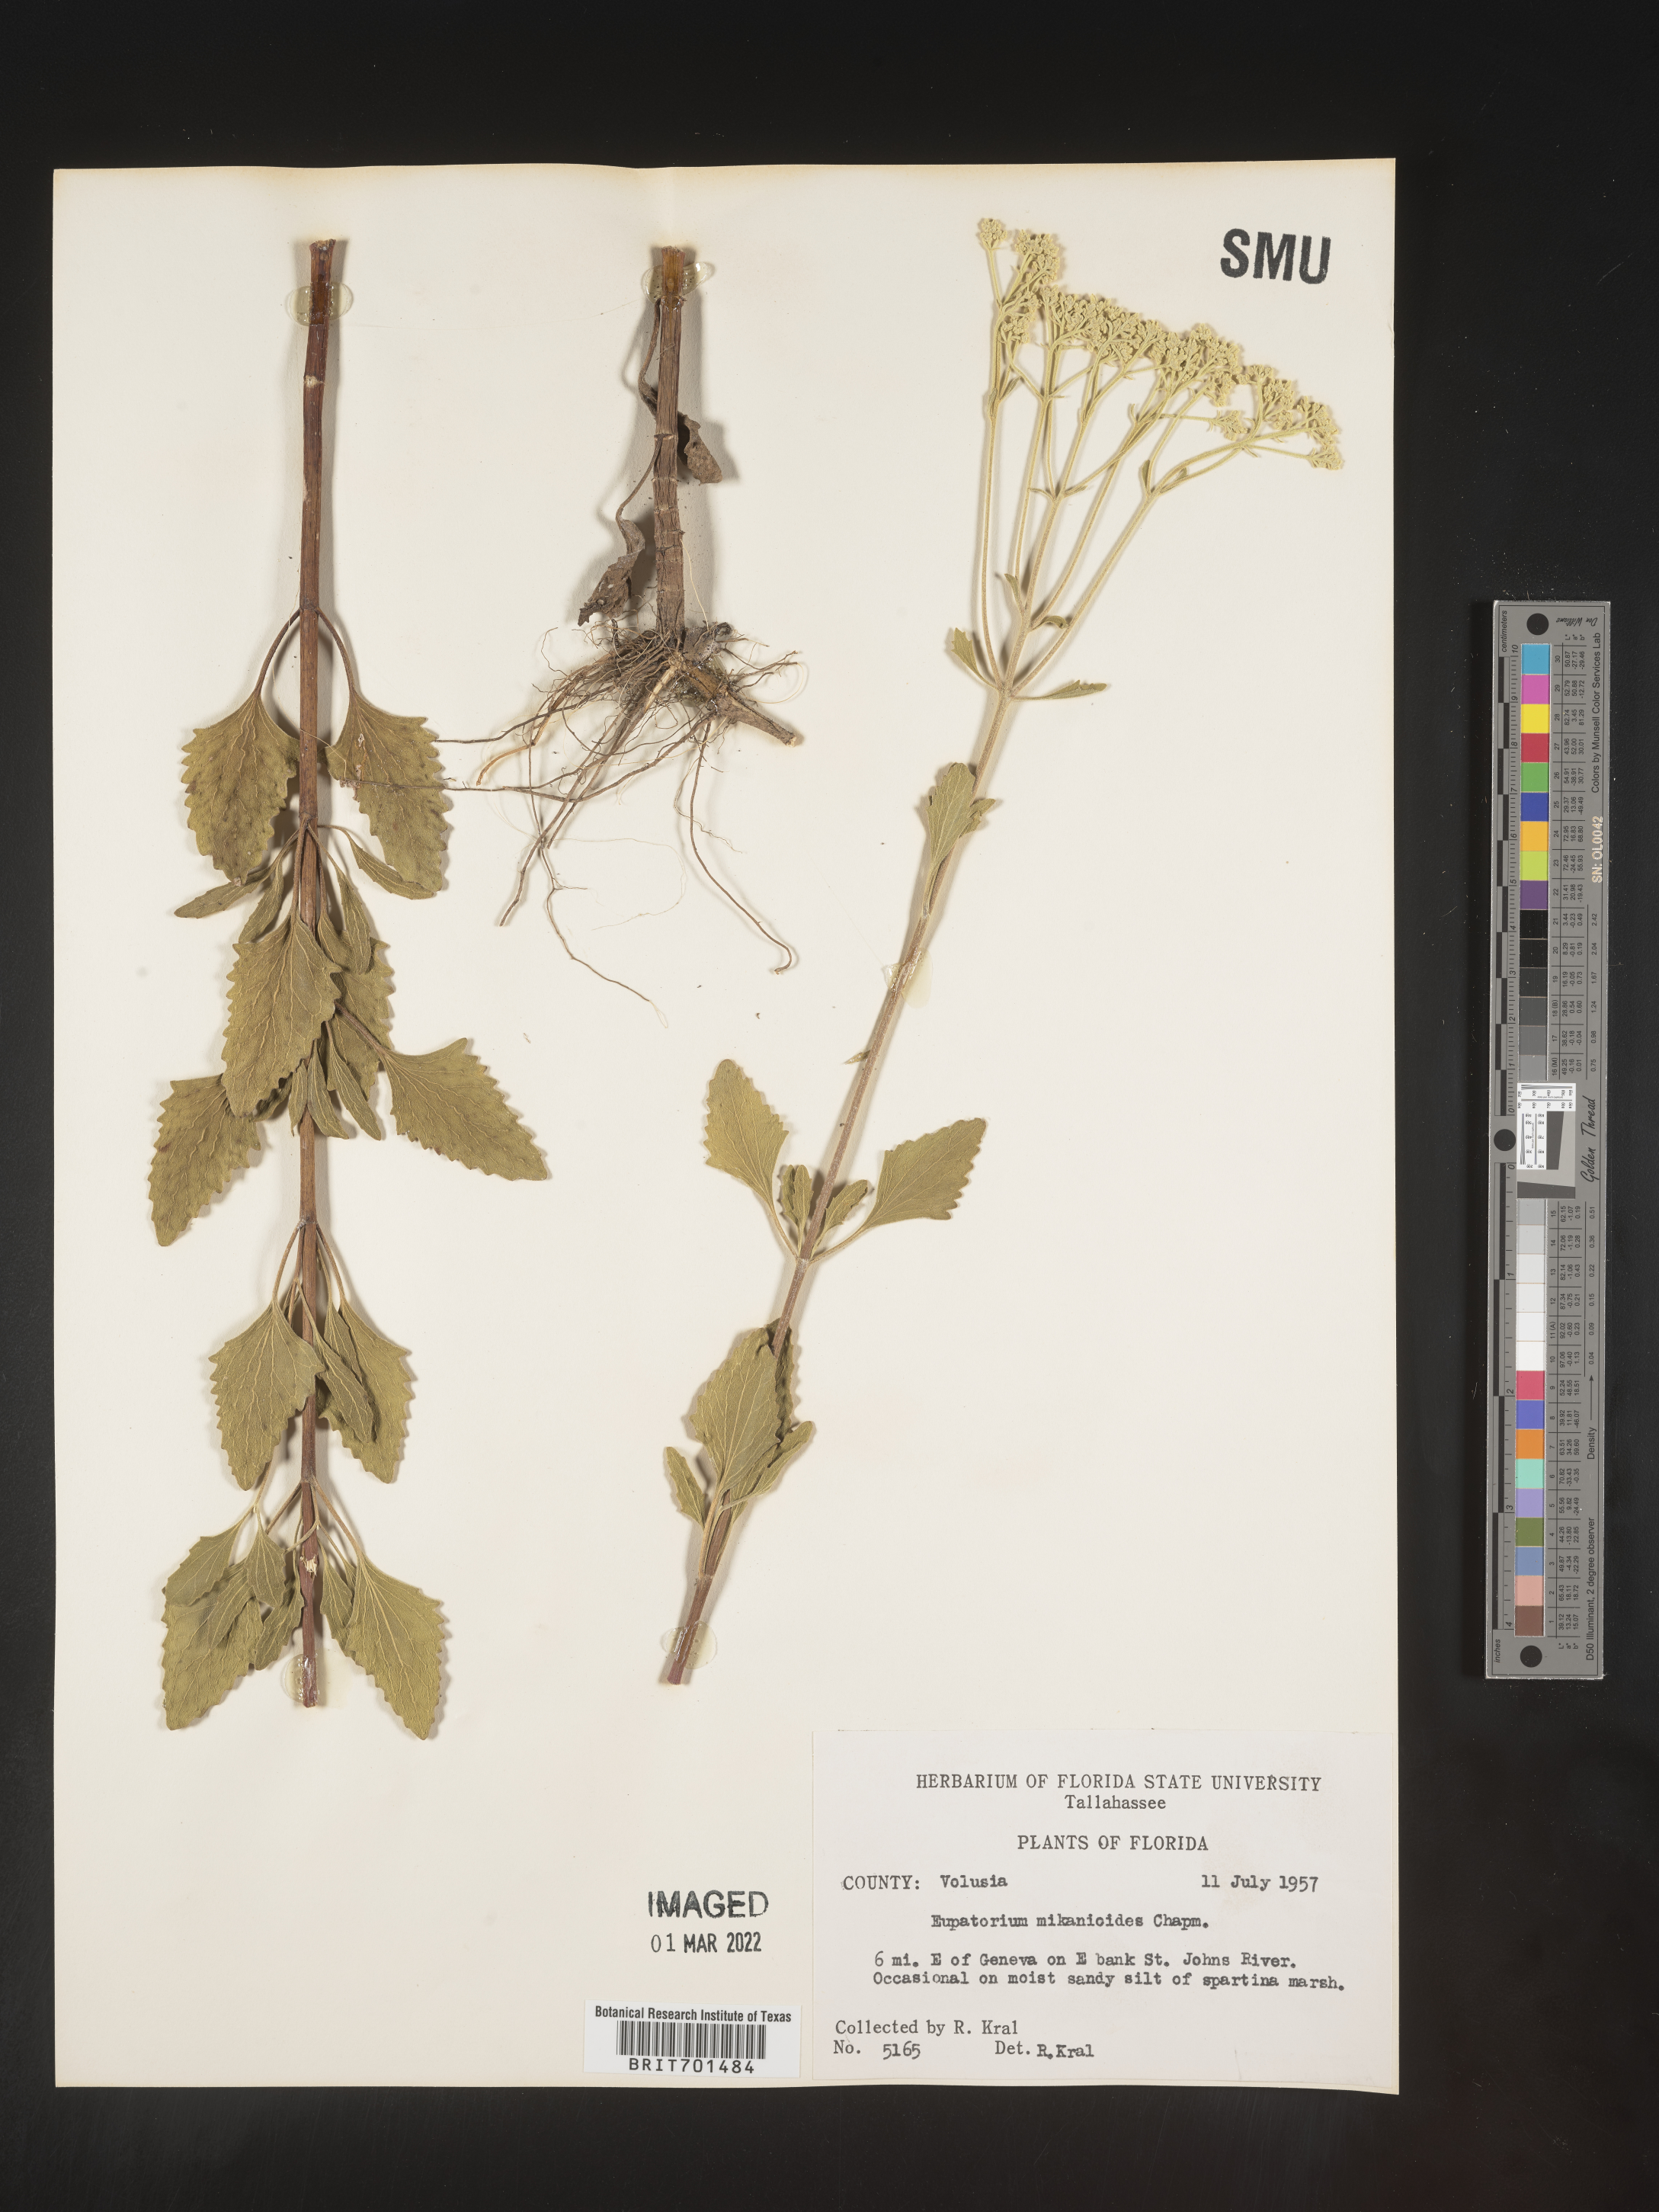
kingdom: Plantae
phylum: Tracheophyta
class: Magnoliopsida
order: Asterales
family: Asteraceae
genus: Eupatorium
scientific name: Eupatorium
